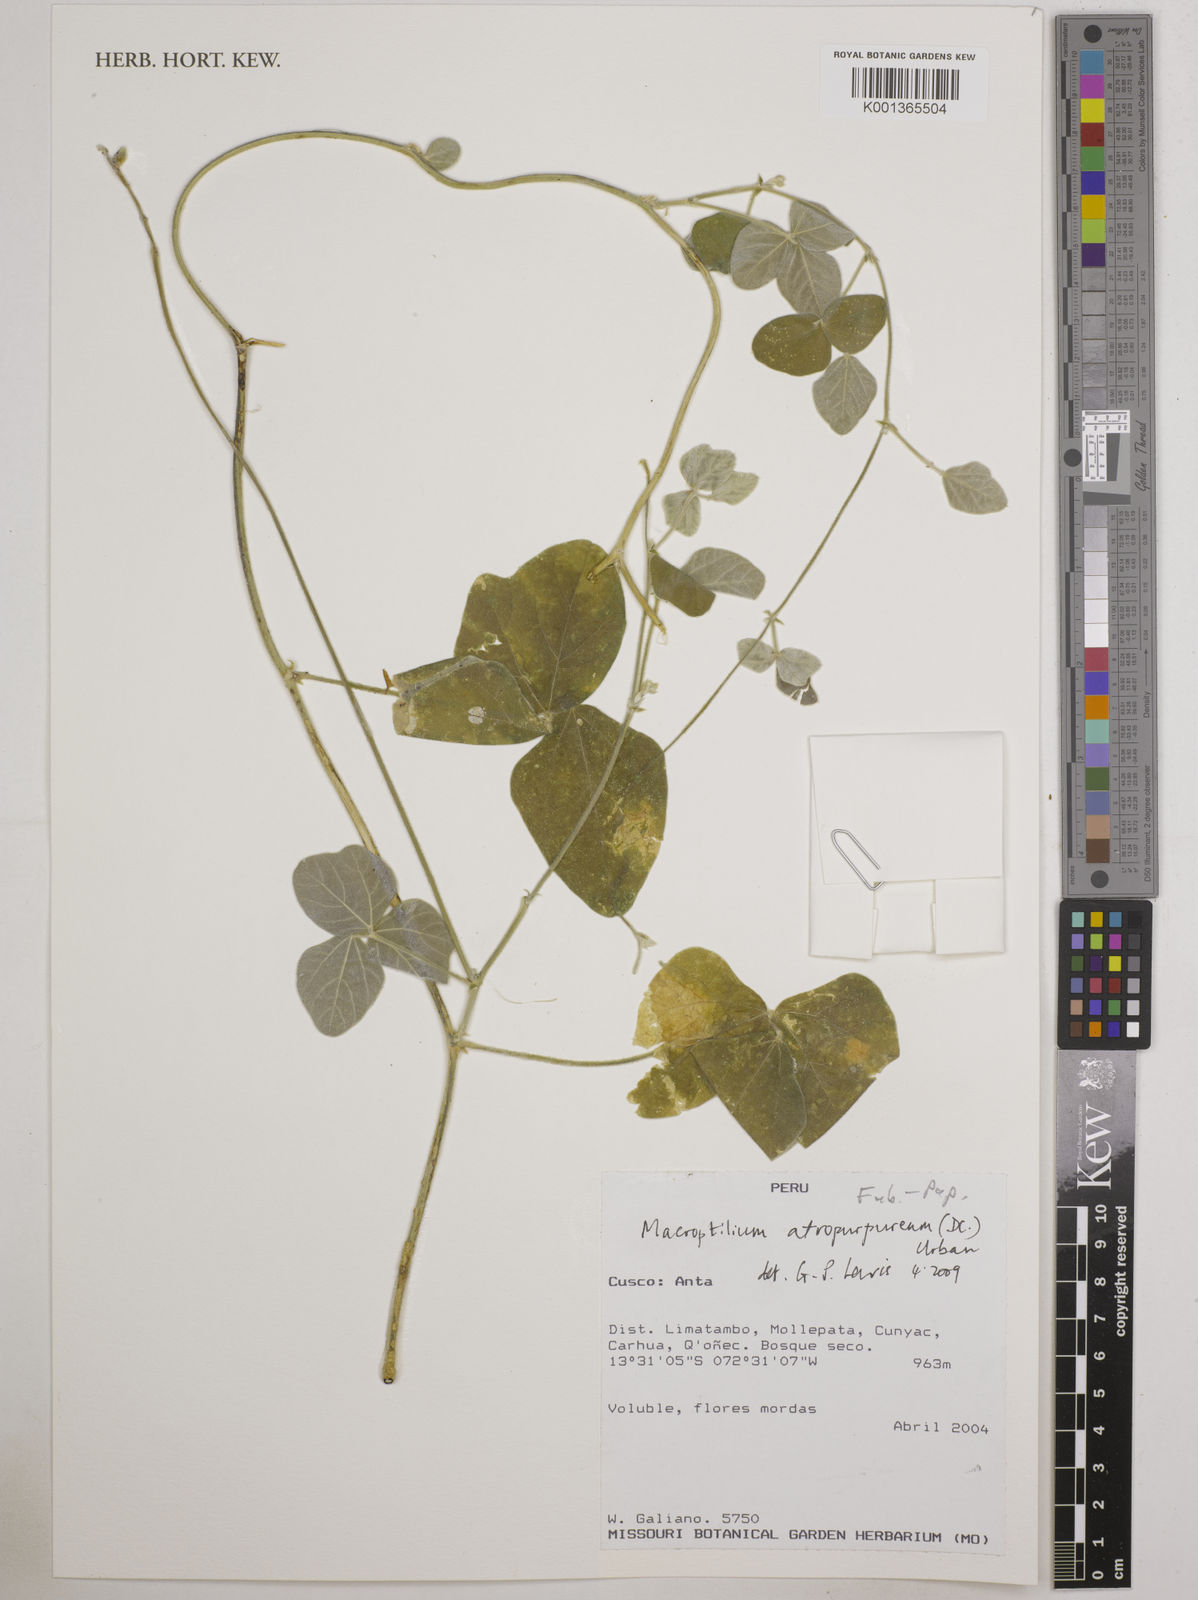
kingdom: Plantae
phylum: Tracheophyta
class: Magnoliopsida
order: Fabales
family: Fabaceae
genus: Macroptilium
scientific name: Macroptilium atropurpureum
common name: Purple bushbean
